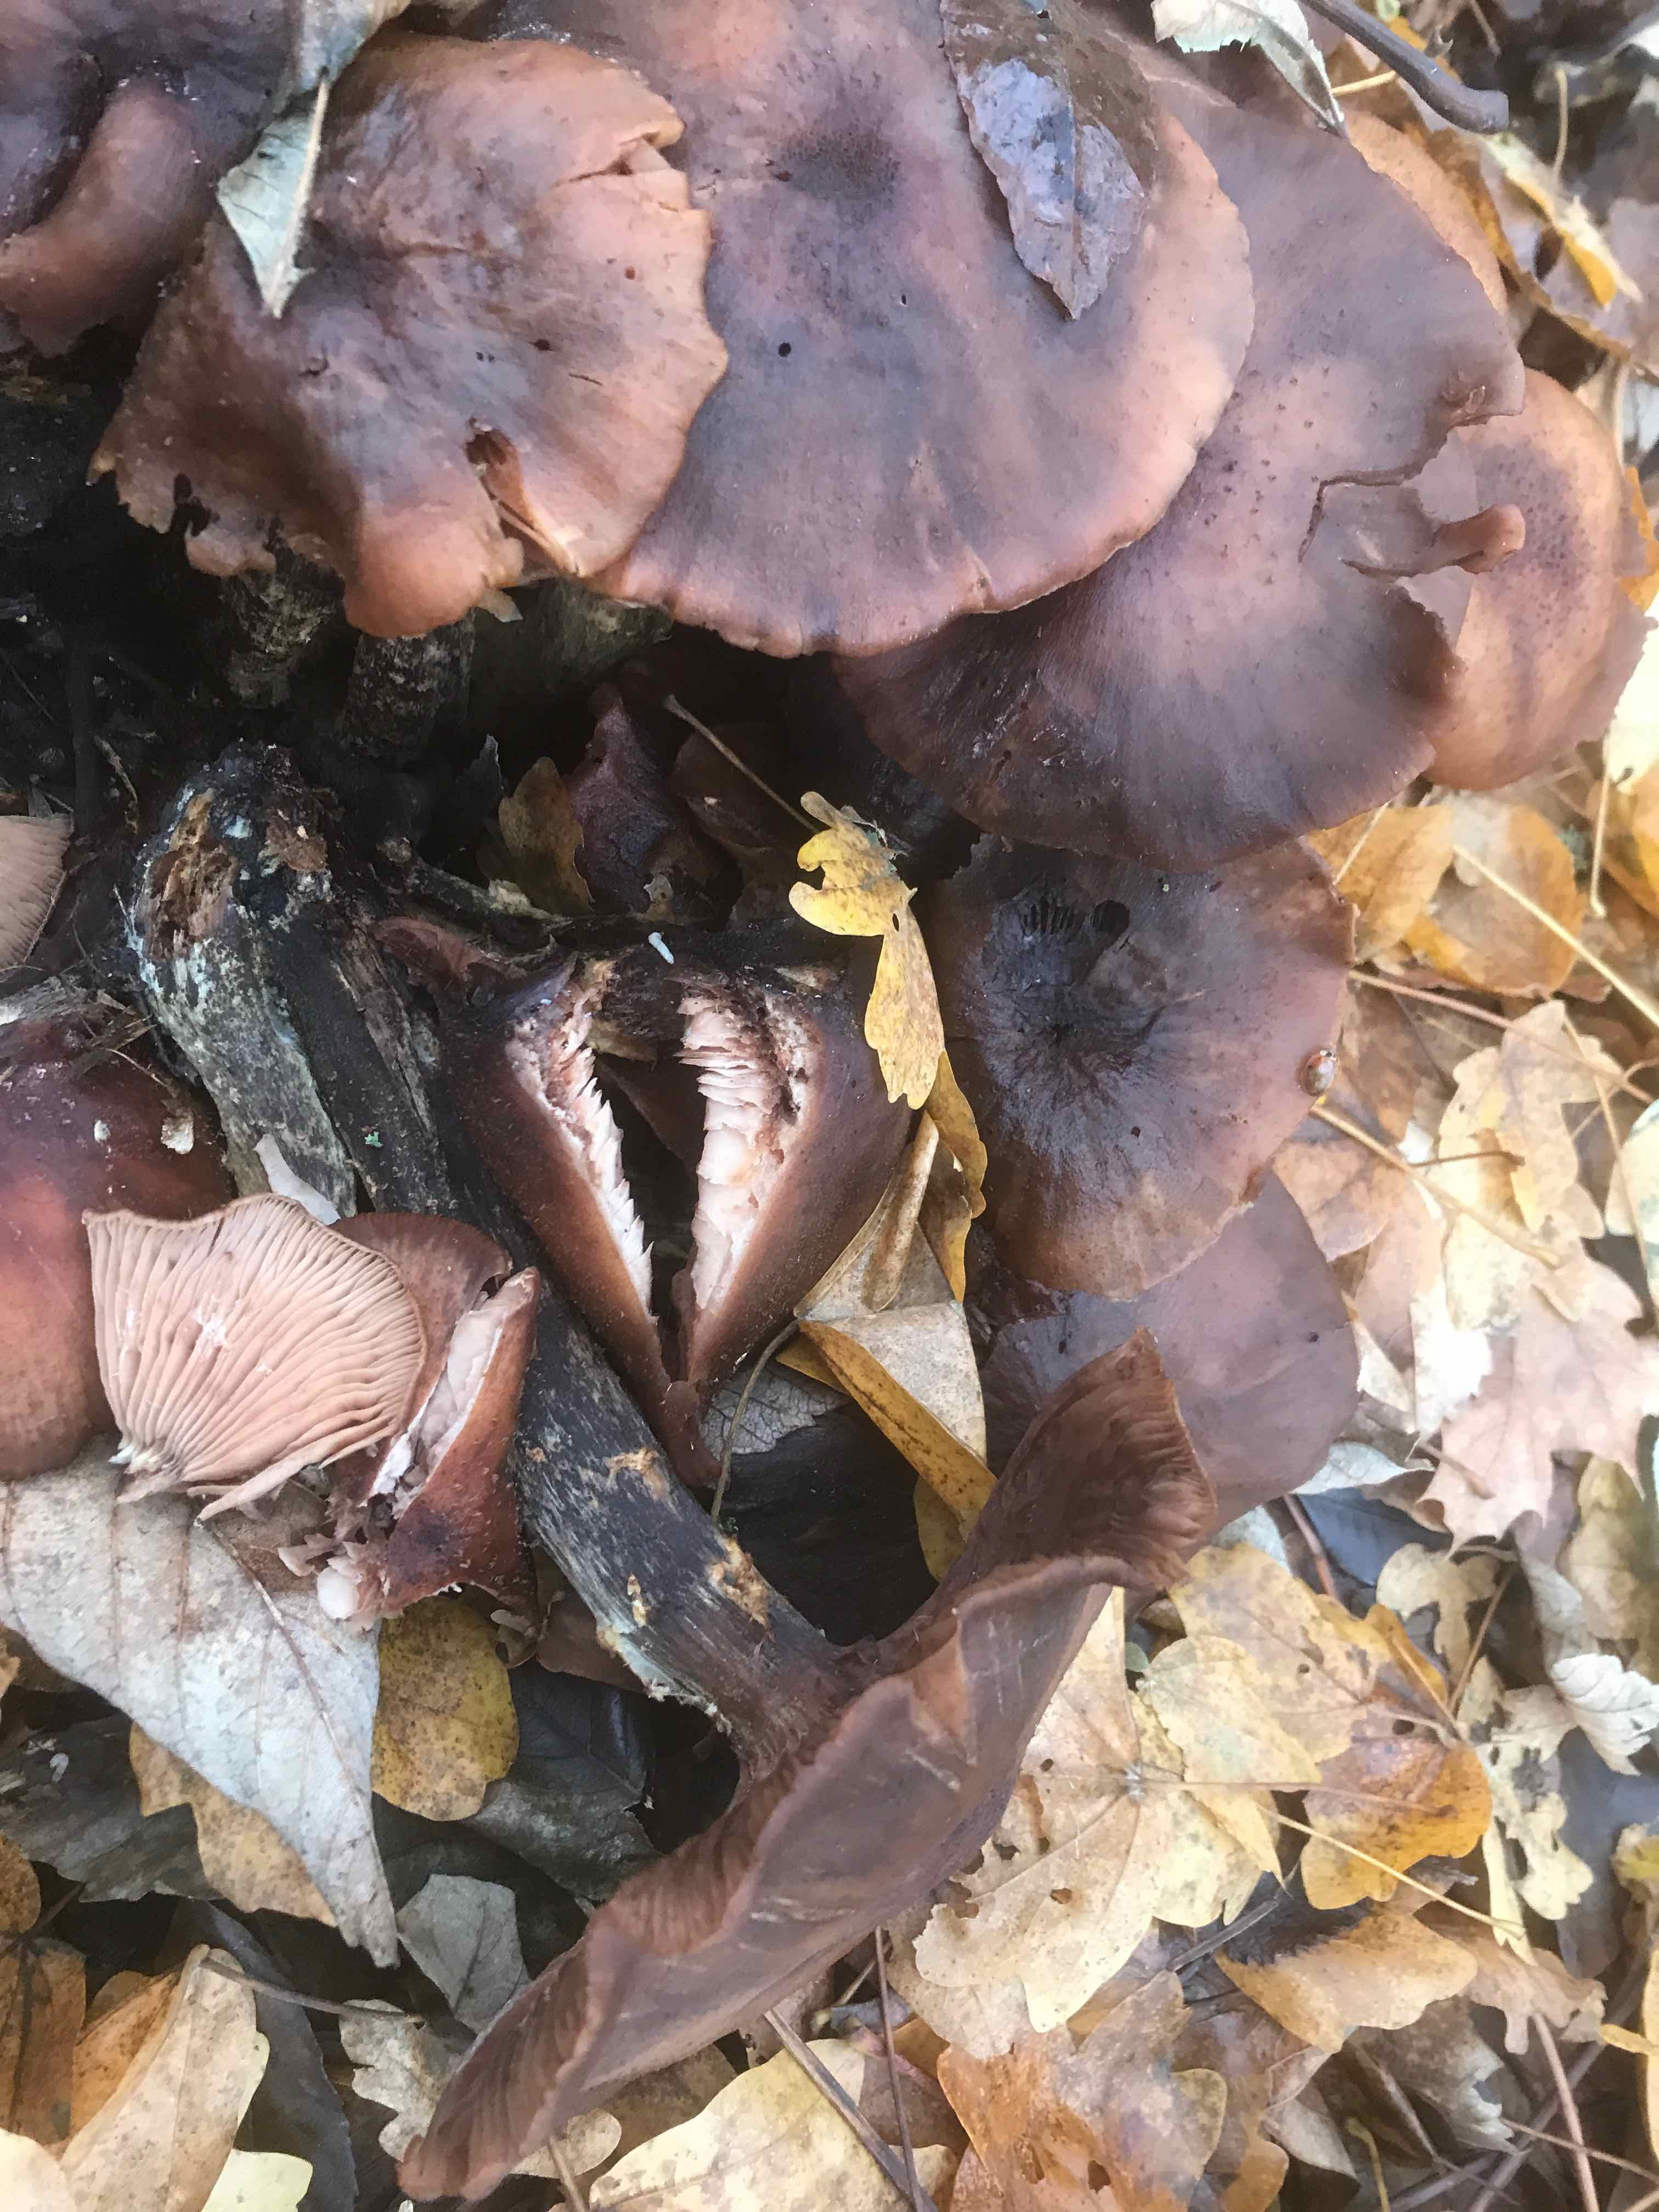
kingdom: Fungi
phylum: Basidiomycota
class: Agaricomycetes
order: Agaricales
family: Physalacriaceae
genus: Armillaria
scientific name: Armillaria lutea
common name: køllestokket honningsvamp
